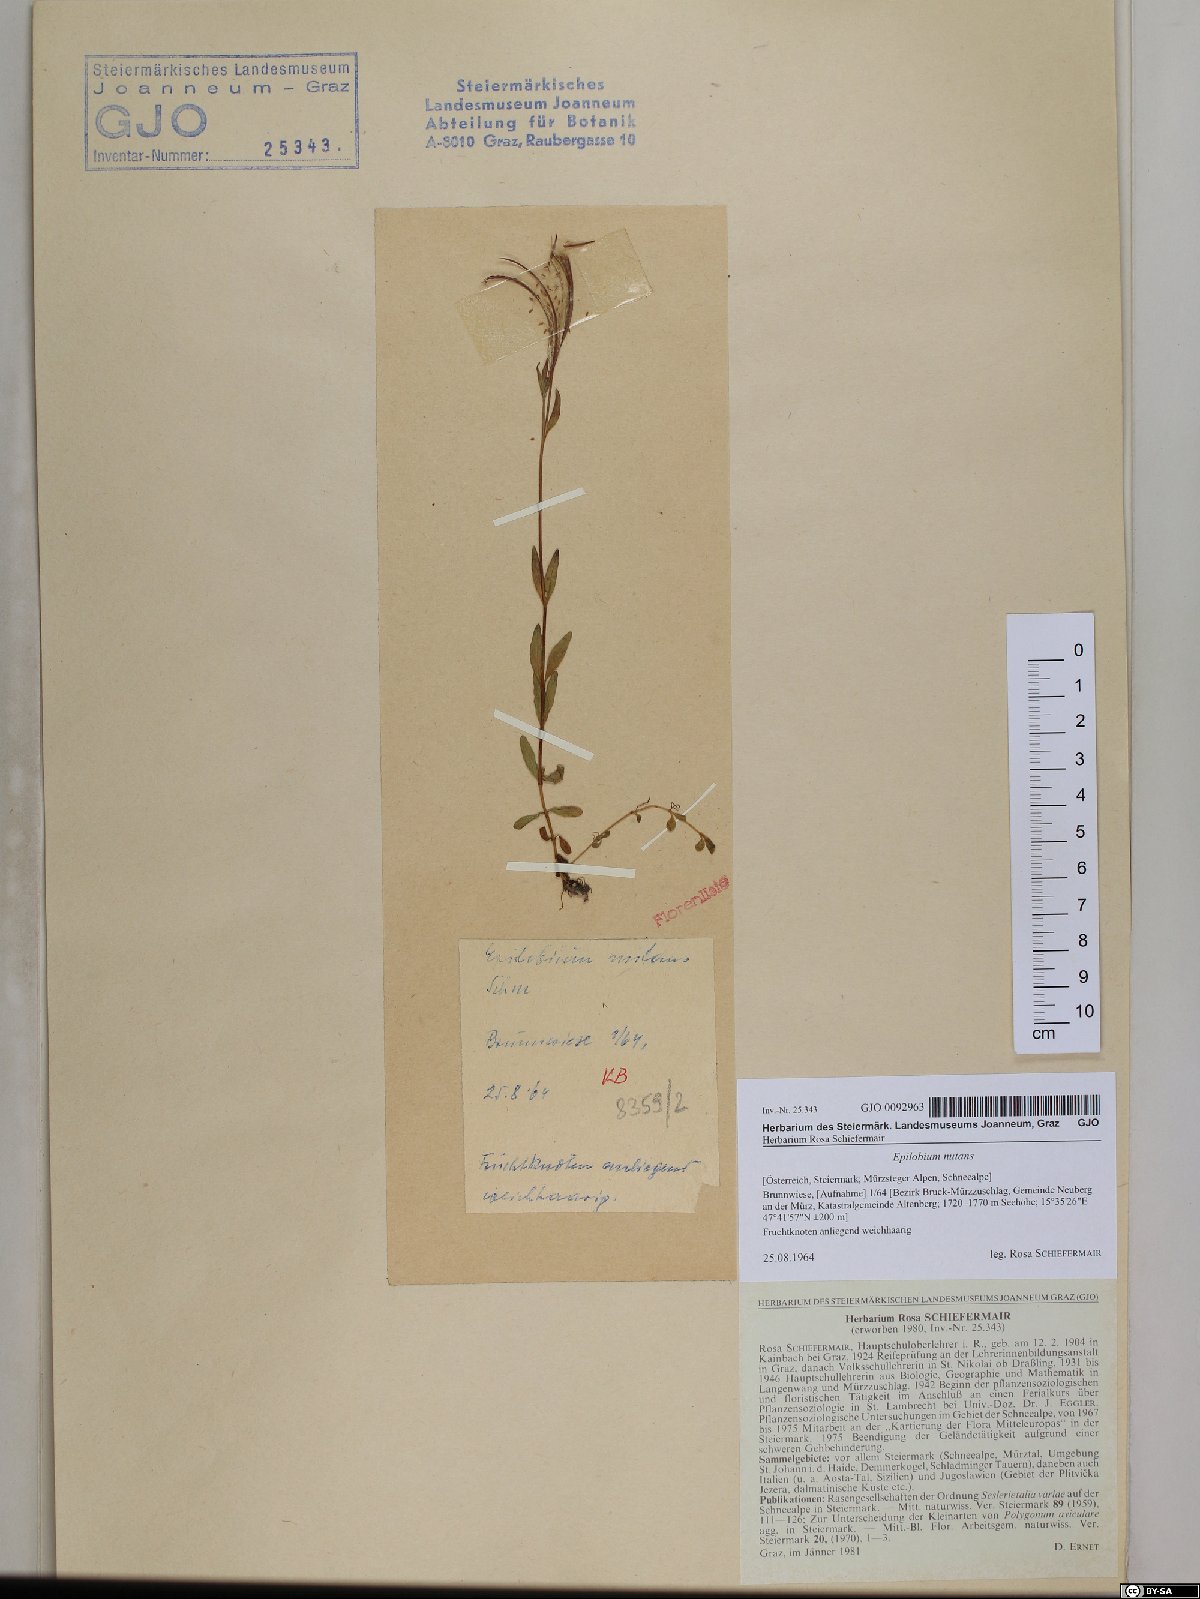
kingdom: Plantae
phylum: Tracheophyta
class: Magnoliopsida
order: Myrtales
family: Onagraceae
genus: Epilobium
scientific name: Epilobium nutans
